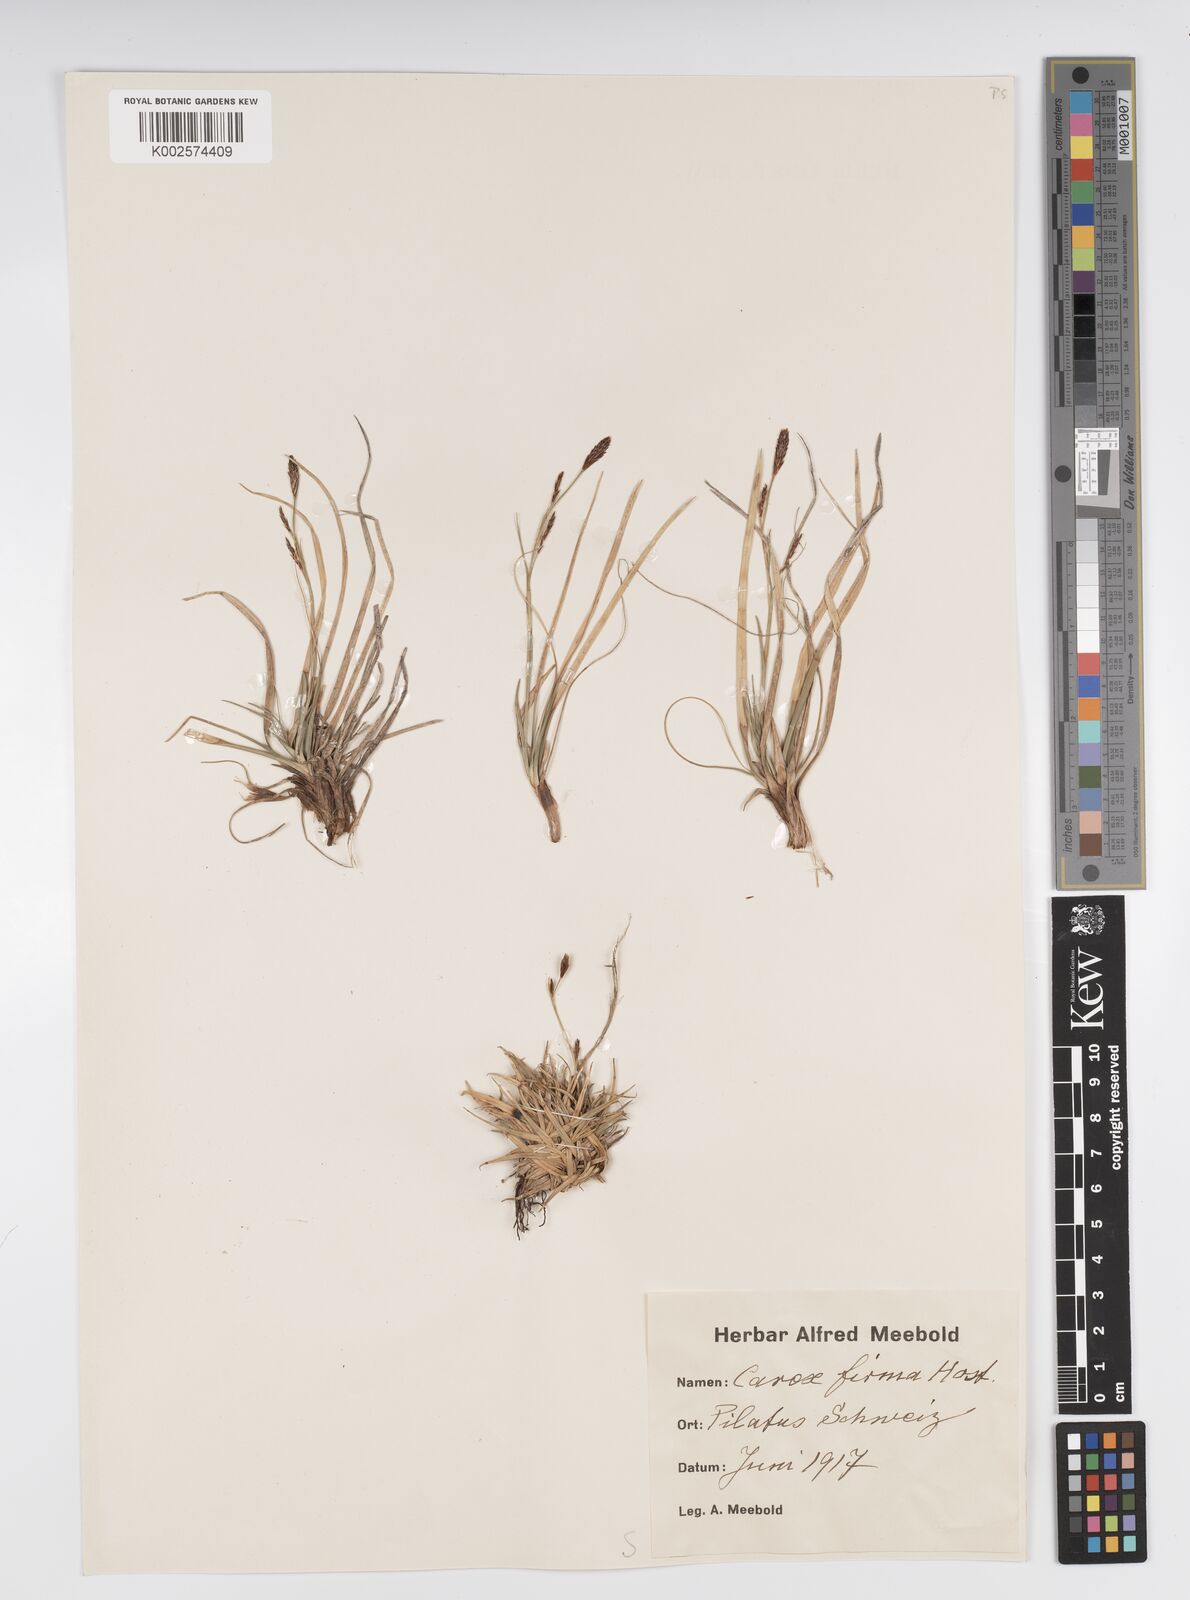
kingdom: Plantae
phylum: Tracheophyta
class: Liliopsida
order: Poales
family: Cyperaceae
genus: Carex
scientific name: Carex firma
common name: Dwarf pillow sedge
